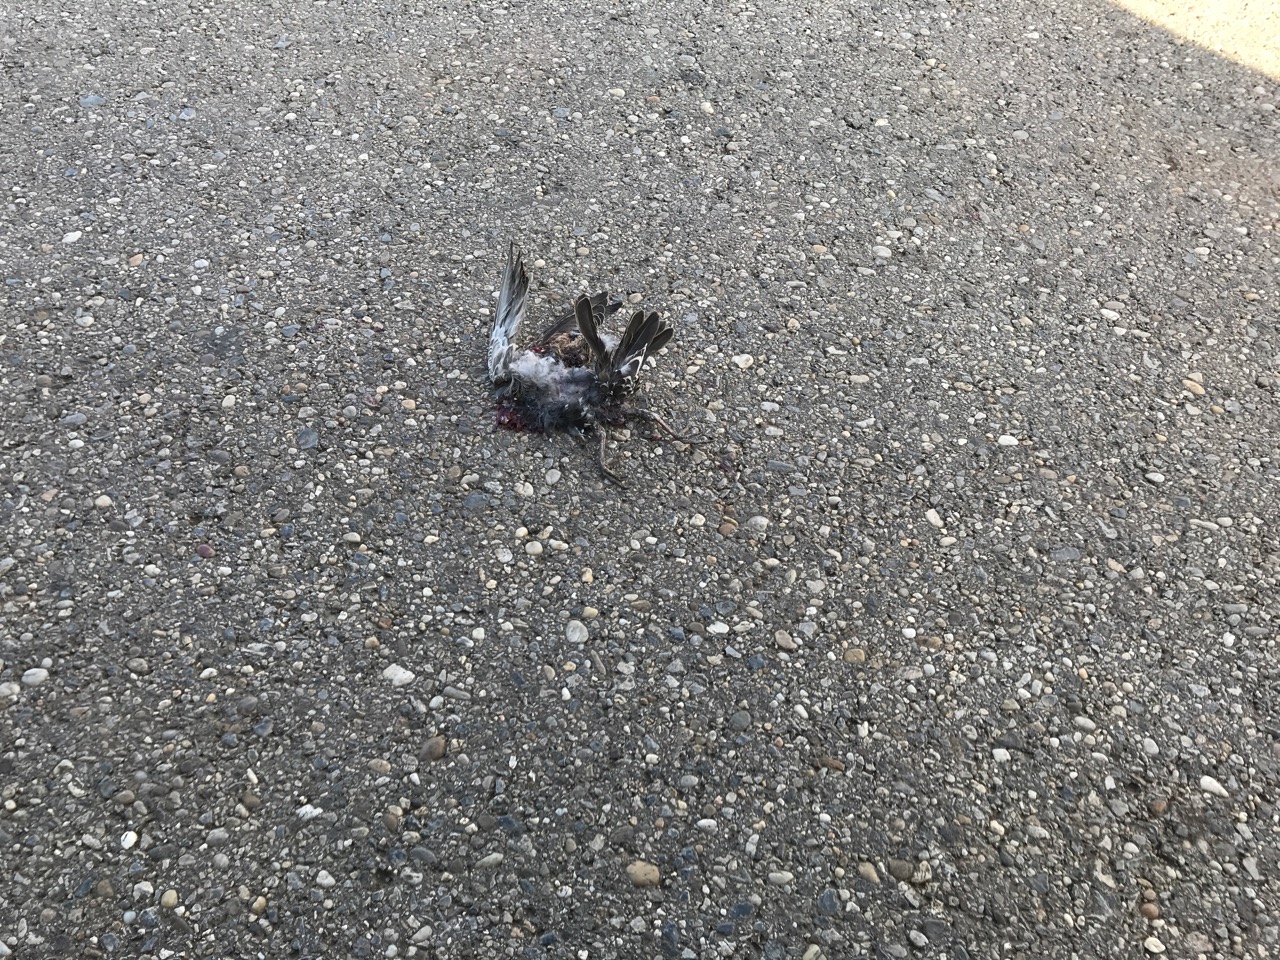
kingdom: Animalia
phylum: Chordata
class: Aves
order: Passeriformes
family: Sturnidae
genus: Sturnus
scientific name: Sturnus vulgaris
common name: Common starling
